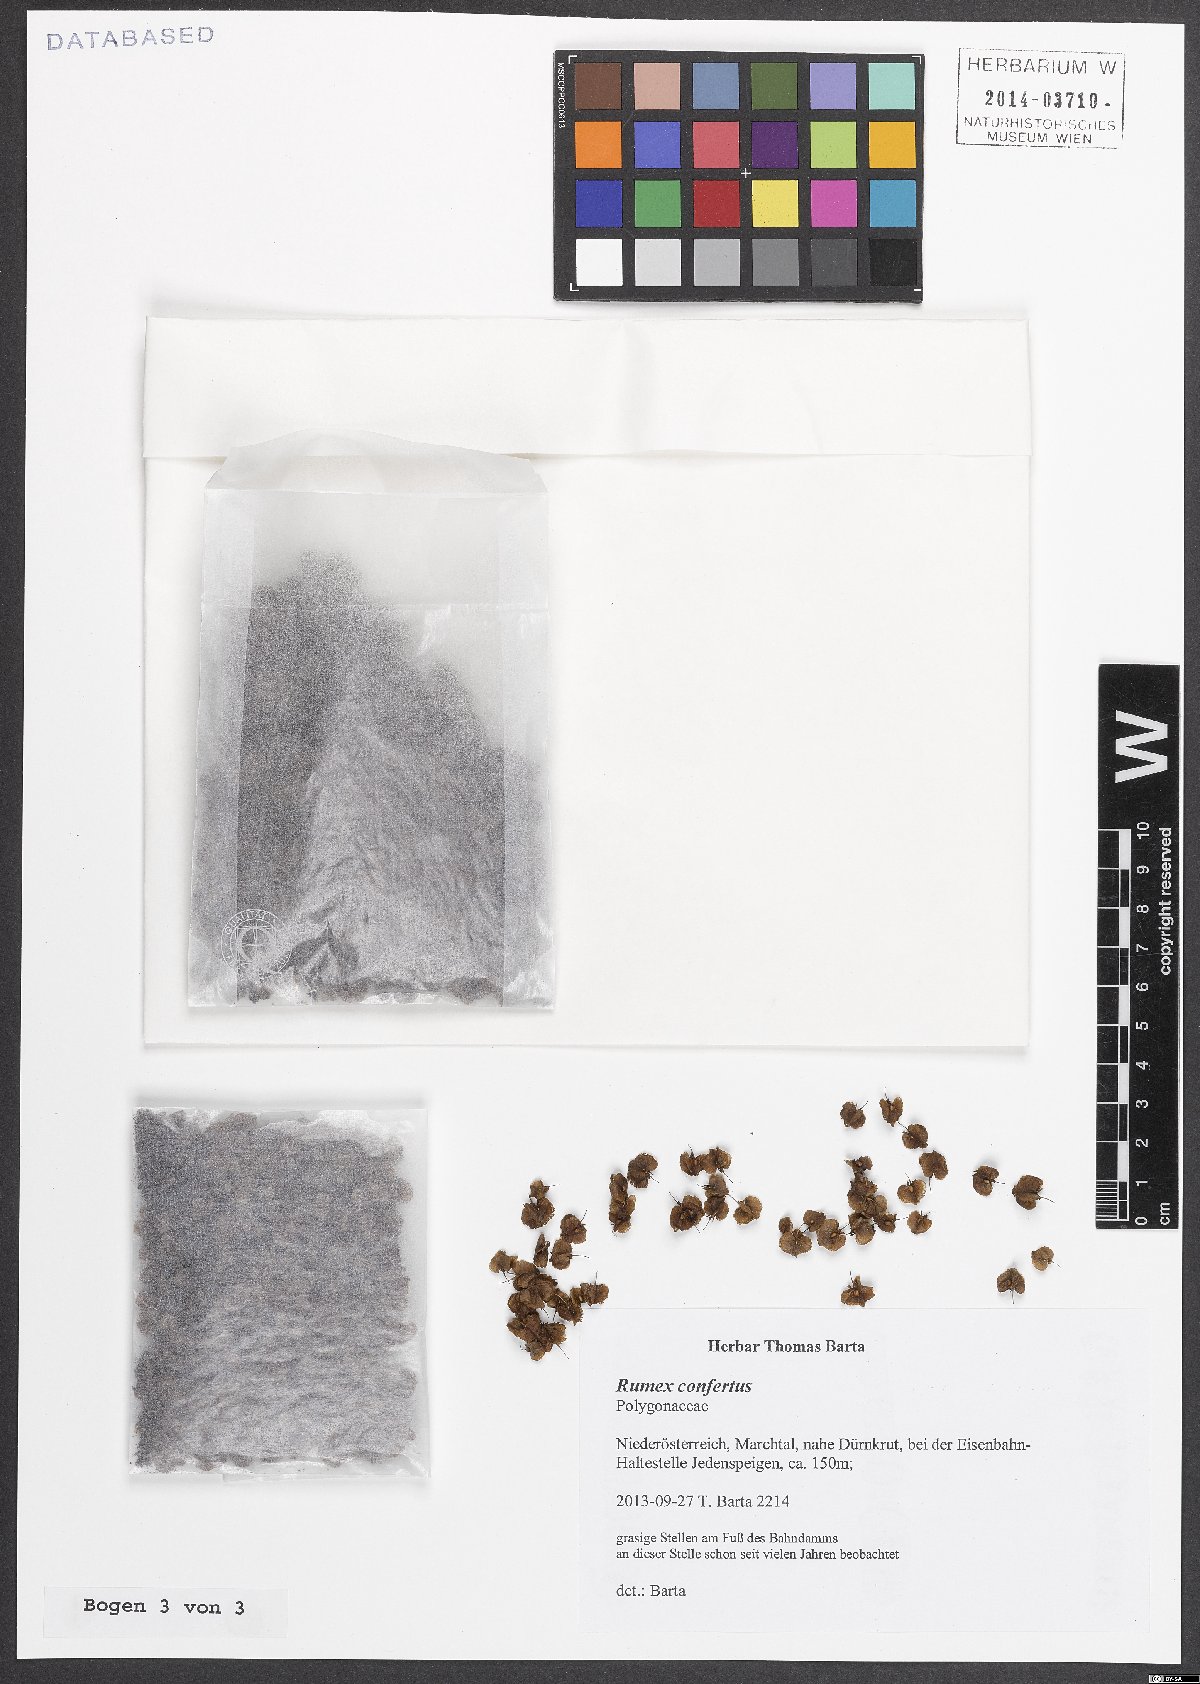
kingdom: Plantae
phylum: Tracheophyta
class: Magnoliopsida
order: Caryophyllales
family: Polygonaceae
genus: Rumex
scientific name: Rumex confertus
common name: Russian dock
